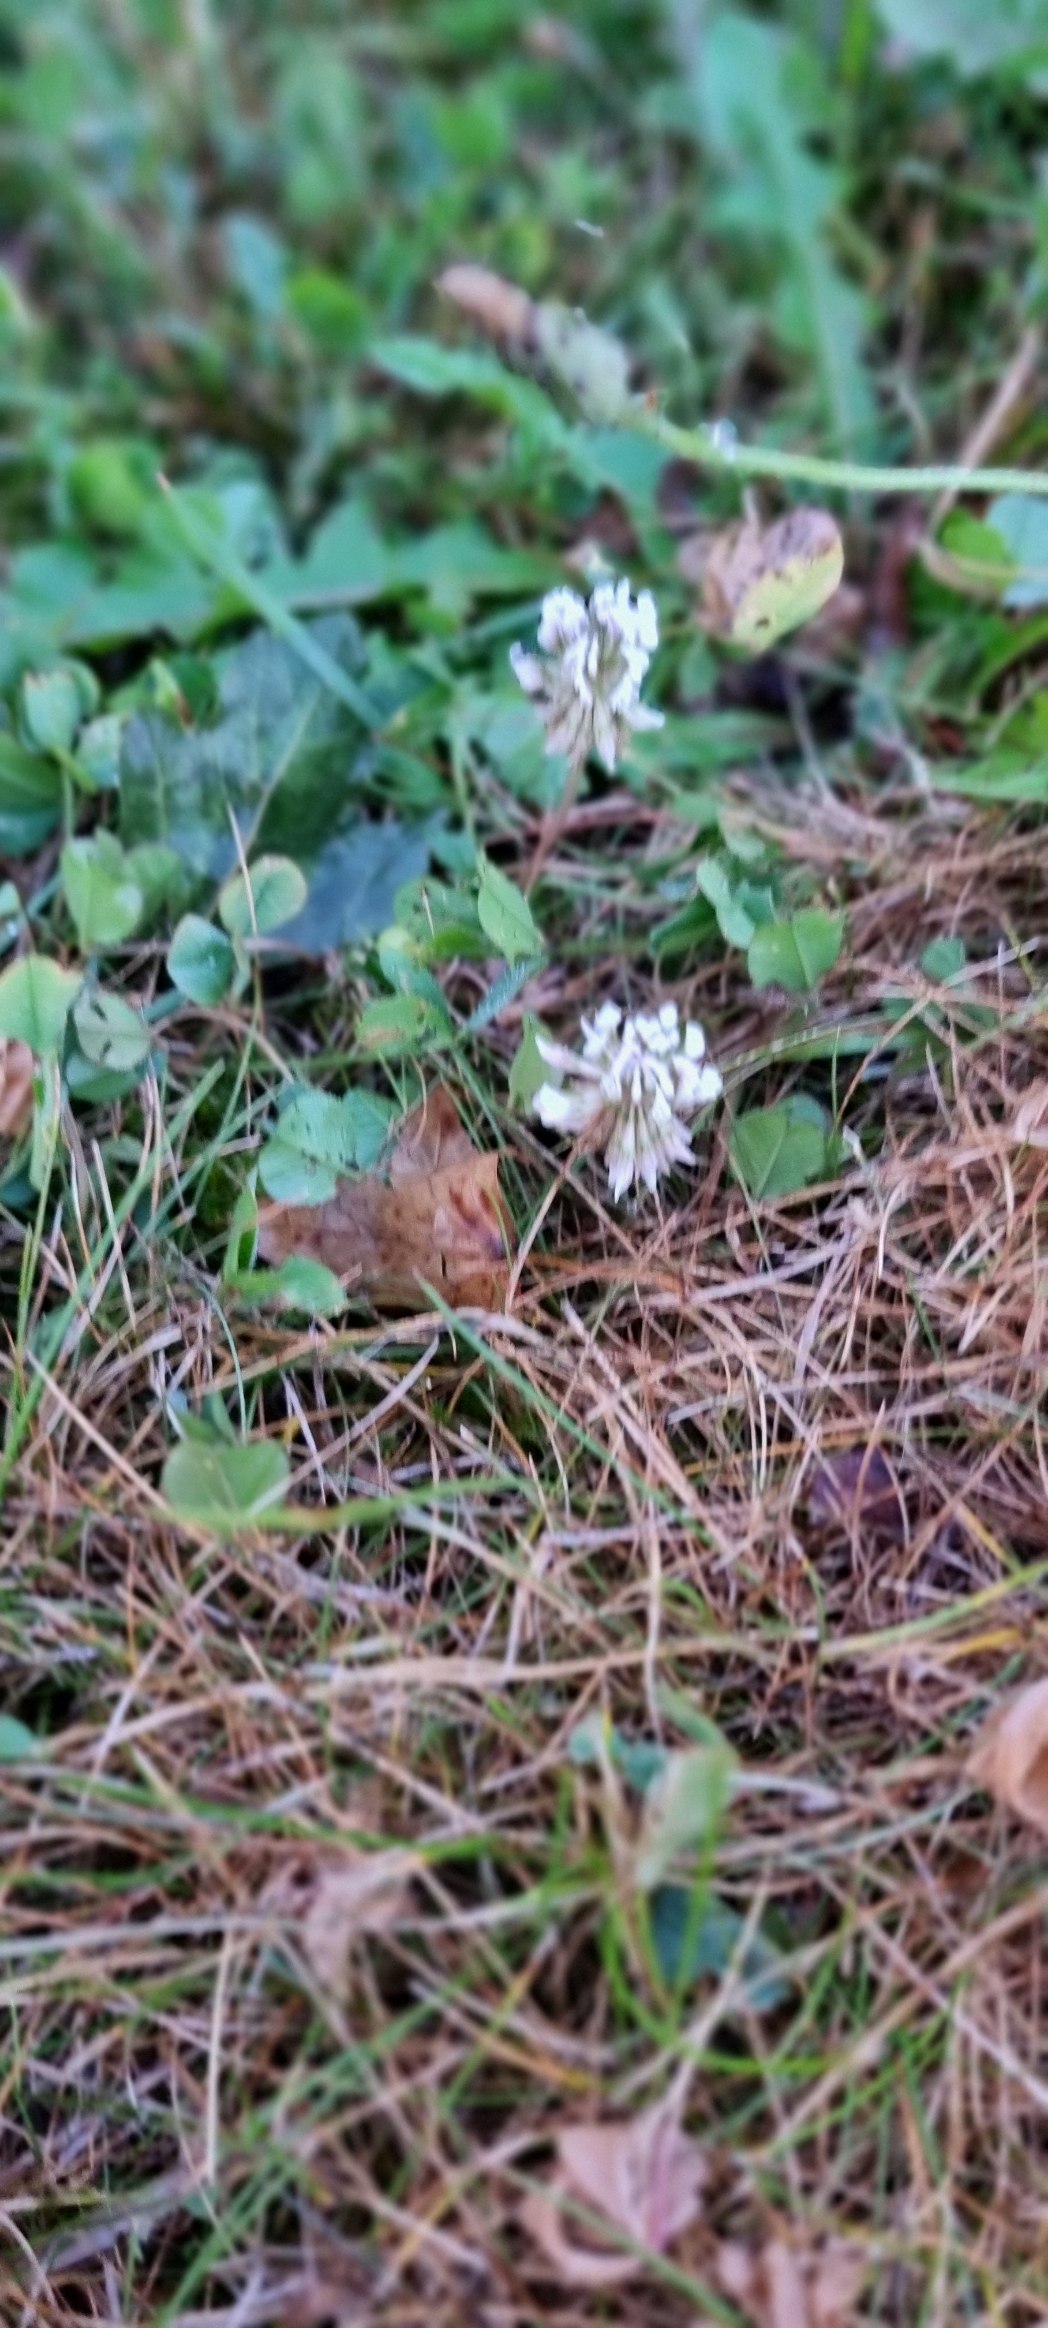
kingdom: Plantae
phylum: Tracheophyta
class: Magnoliopsida
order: Fabales
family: Fabaceae
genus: Trifolium
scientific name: Trifolium repens
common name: Hvid-kløver
